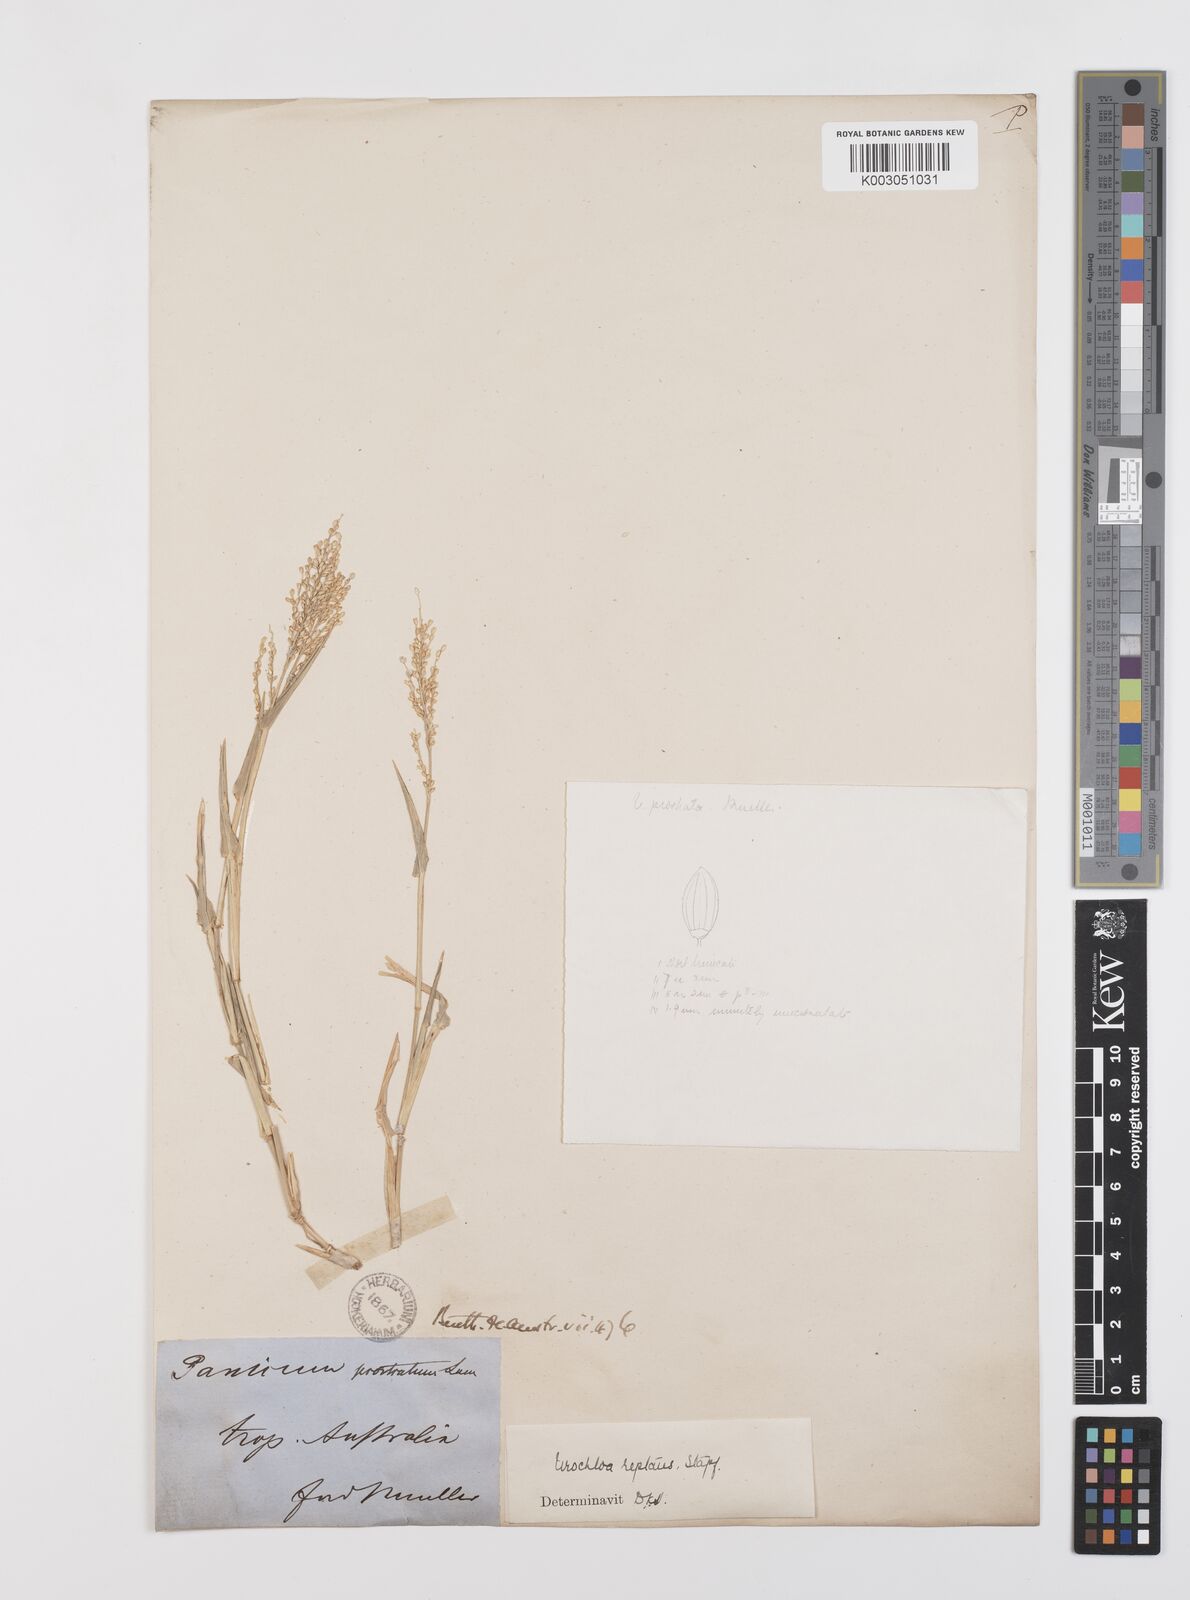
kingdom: Plantae
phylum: Tracheophyta
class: Liliopsida
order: Poales
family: Poaceae
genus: Urochloa
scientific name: Urochloa reptans
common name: Sprawling signalgrass
